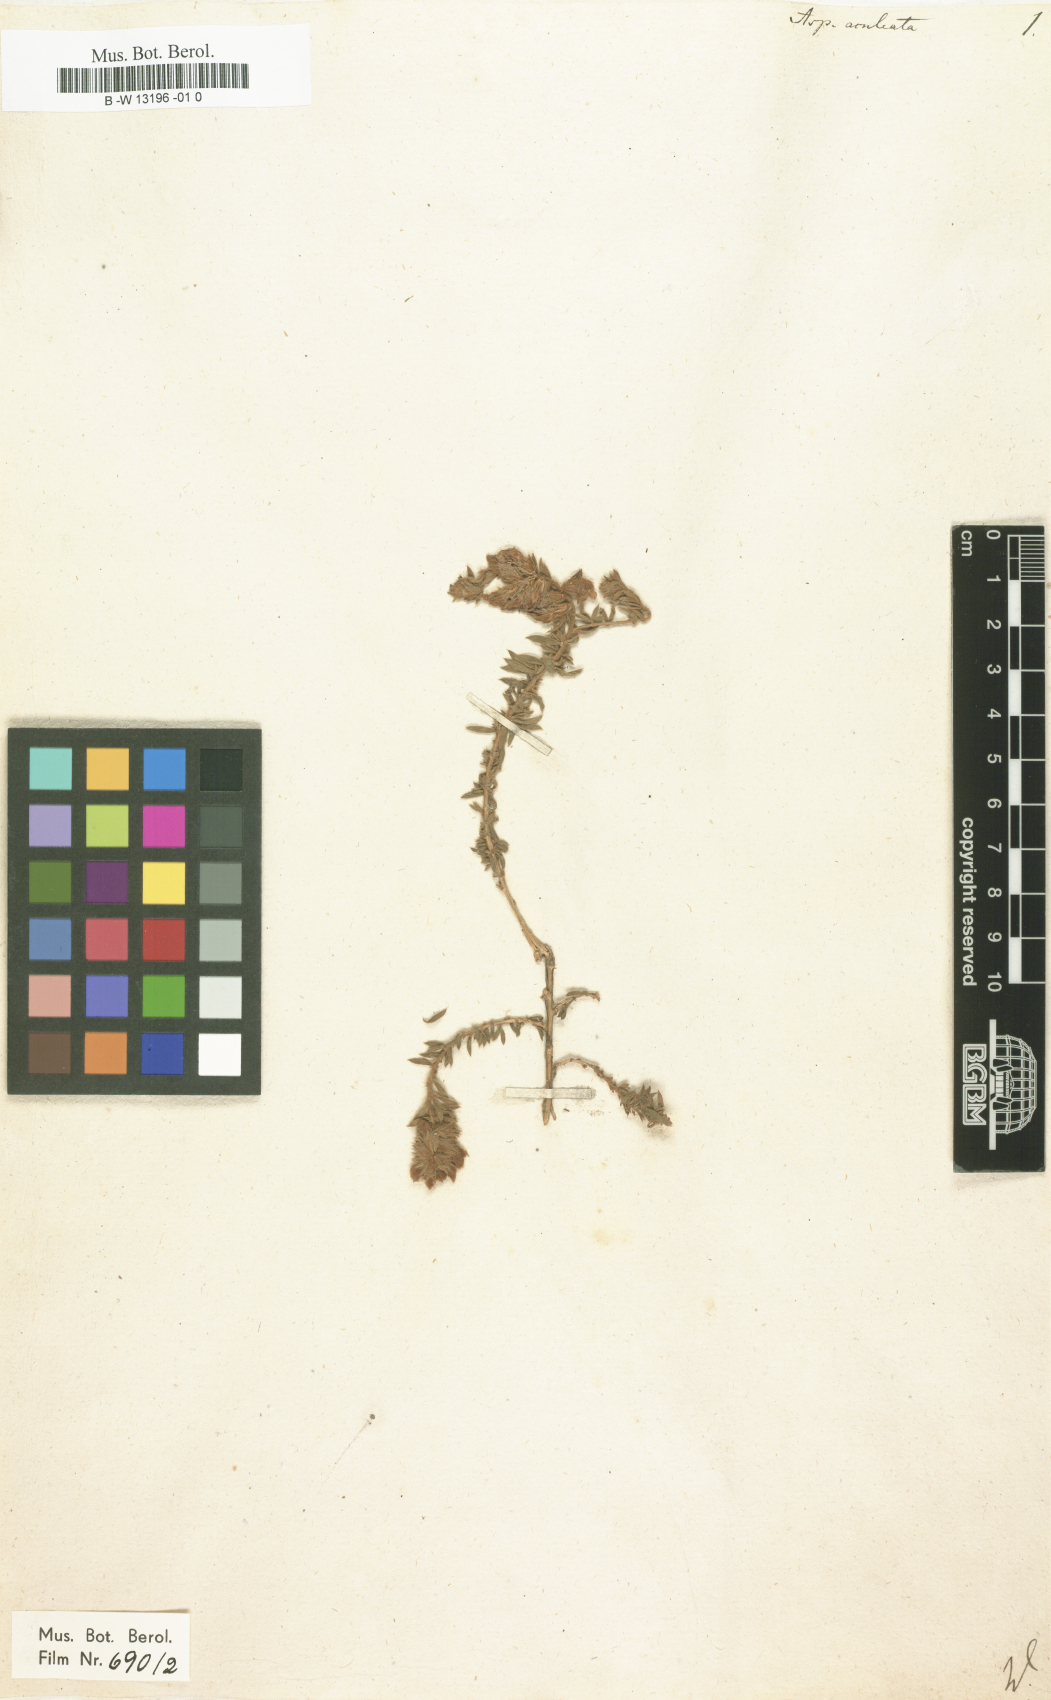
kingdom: Plantae
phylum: Tracheophyta
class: Magnoliopsida
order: Fabales
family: Fabaceae
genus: Aspalathus
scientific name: Aspalathus aculeata
